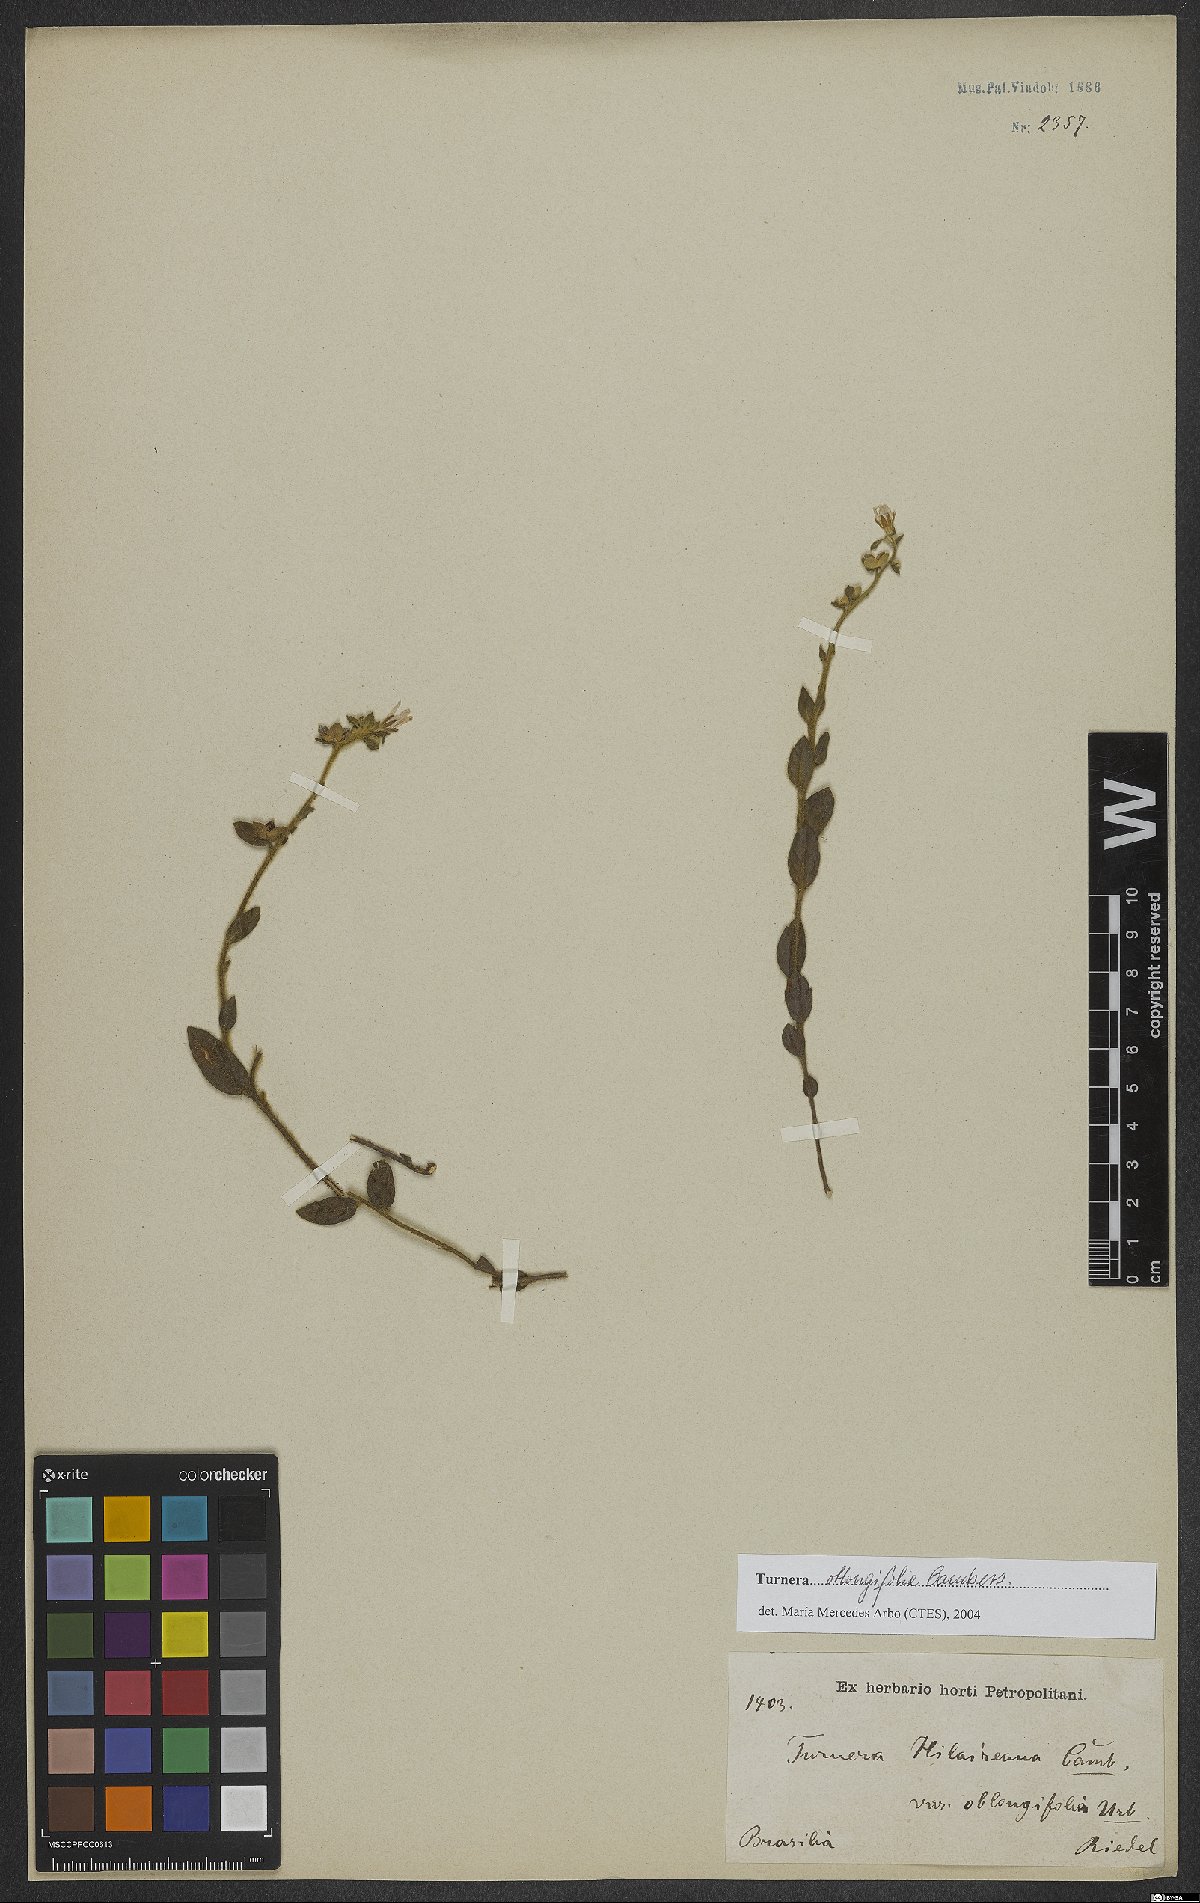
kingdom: Plantae
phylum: Tracheophyta
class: Magnoliopsida
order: Malpighiales
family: Turneraceae
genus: Turnera
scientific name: Turnera oblongifolia
